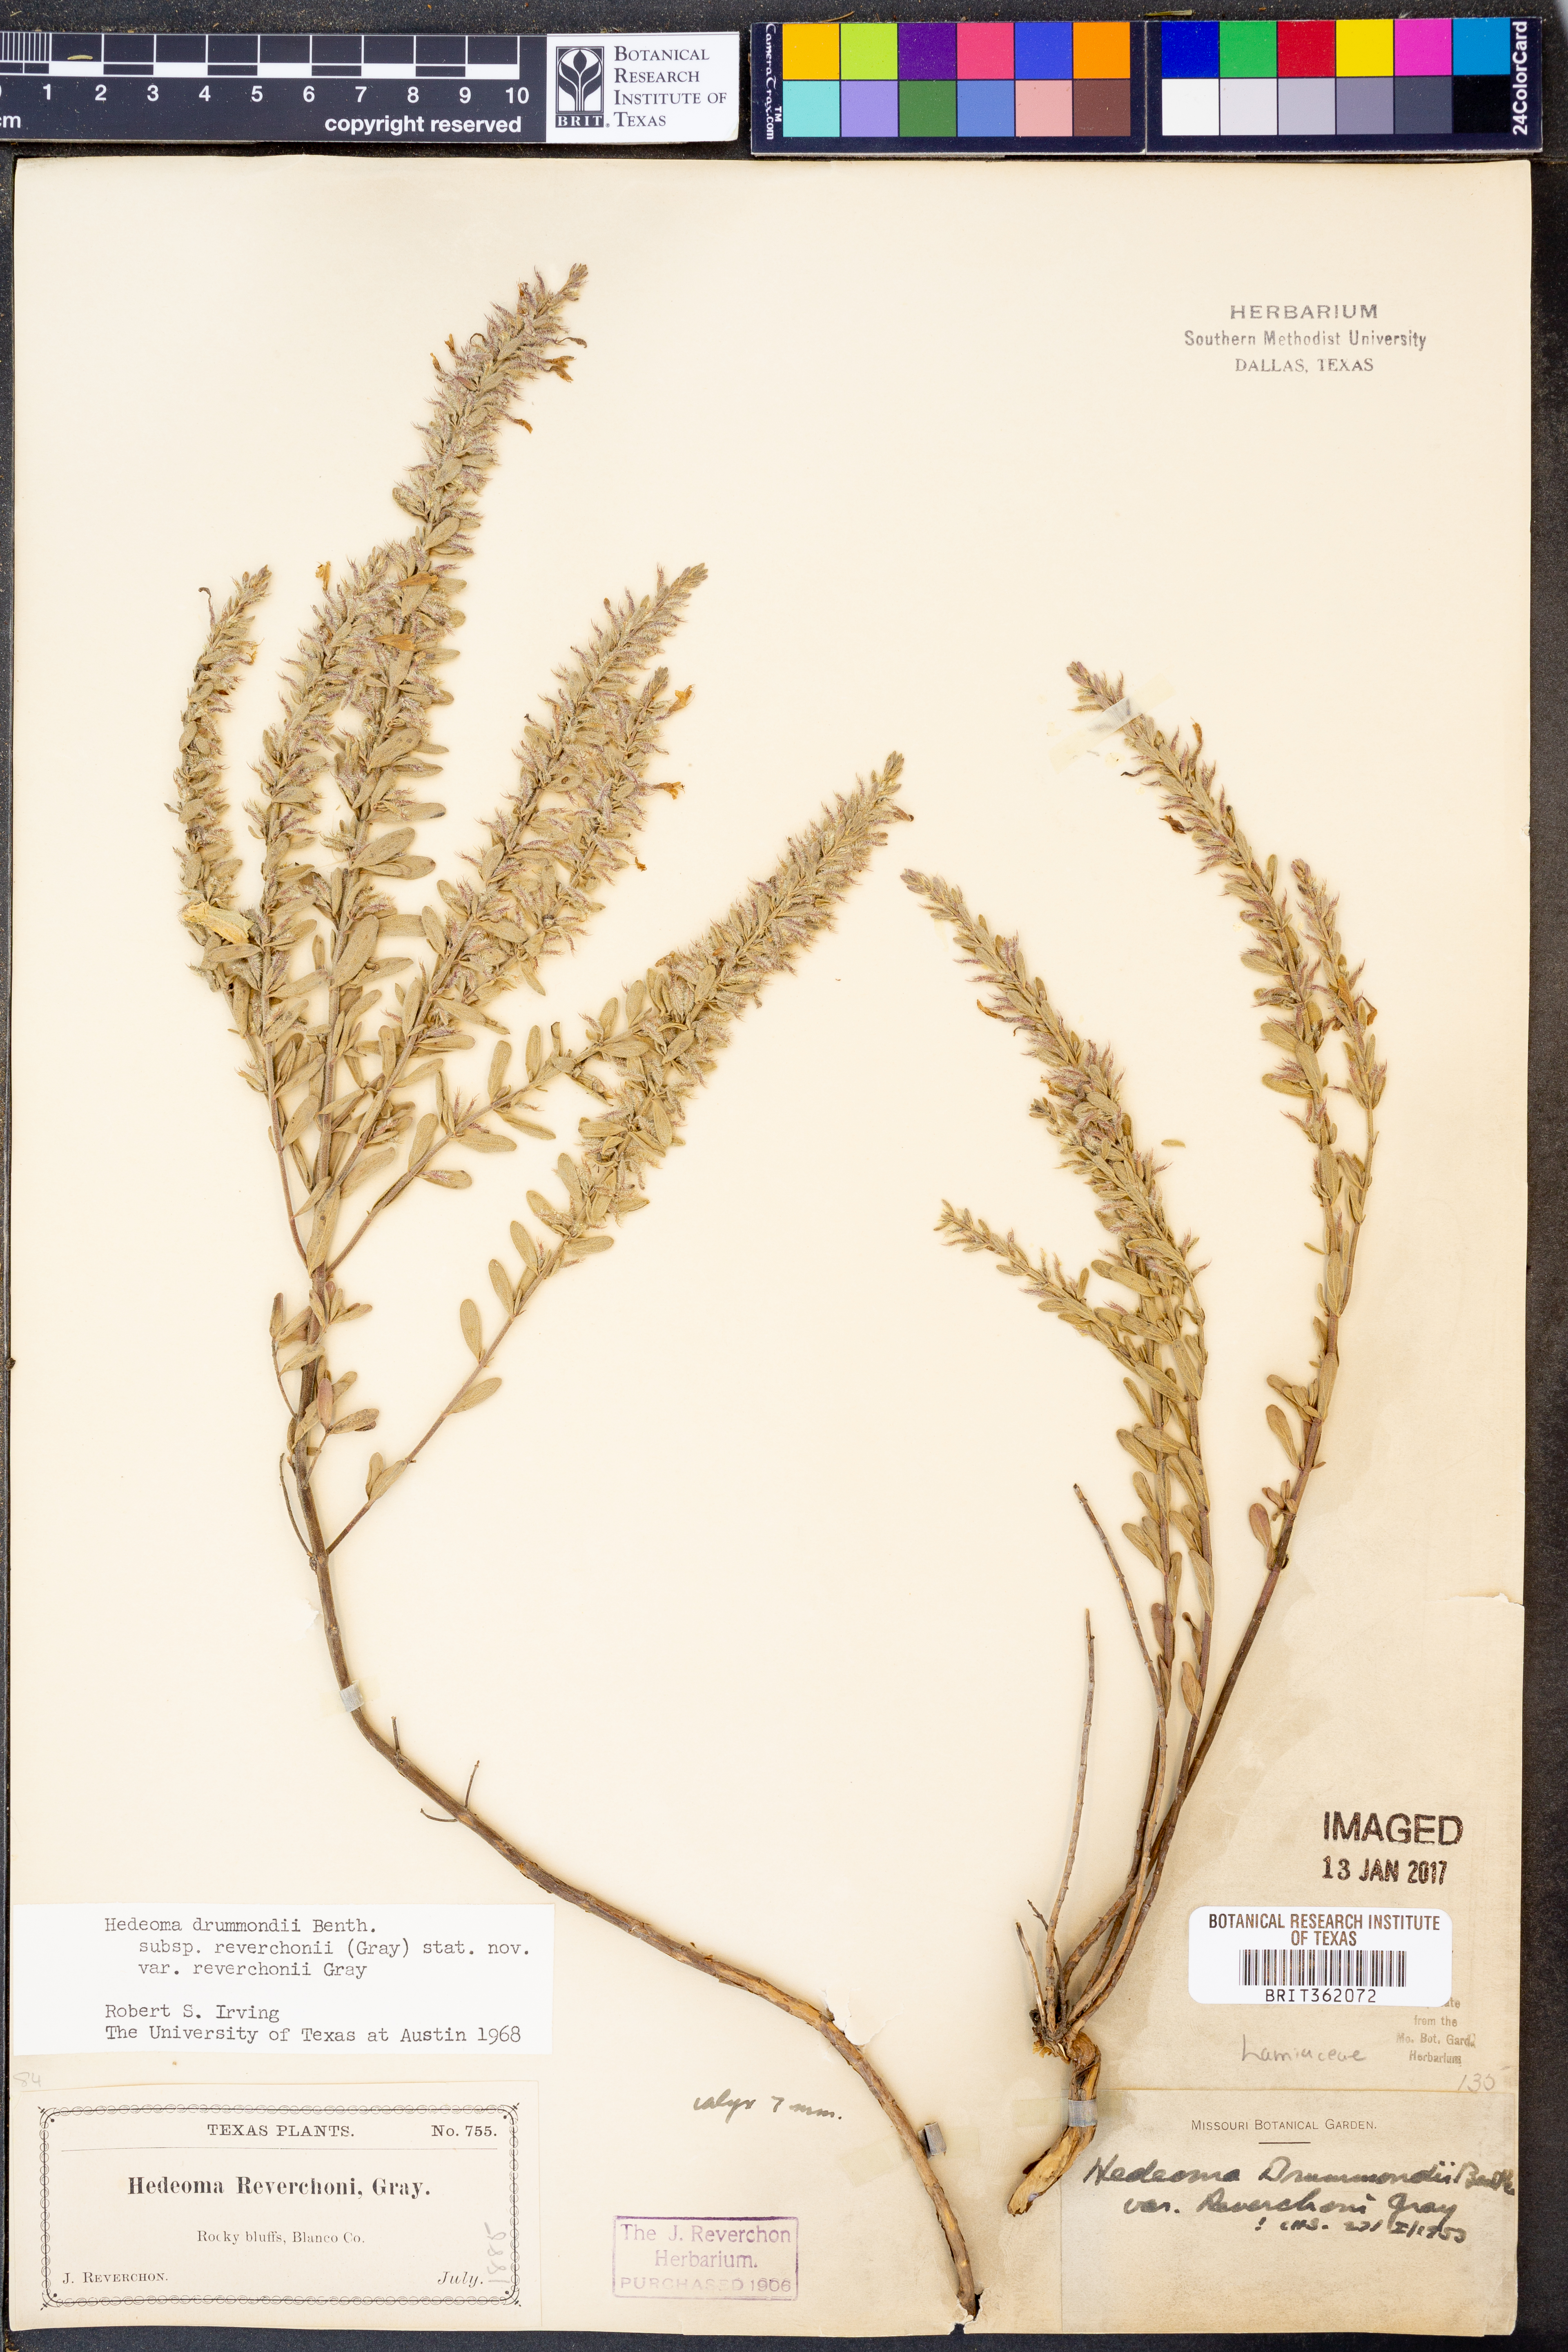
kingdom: Plantae
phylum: Tracheophyta
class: Magnoliopsida
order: Lamiales
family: Lamiaceae
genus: Hedeoma
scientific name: Hedeoma reverchonii
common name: Reverchon's false penny-royal
